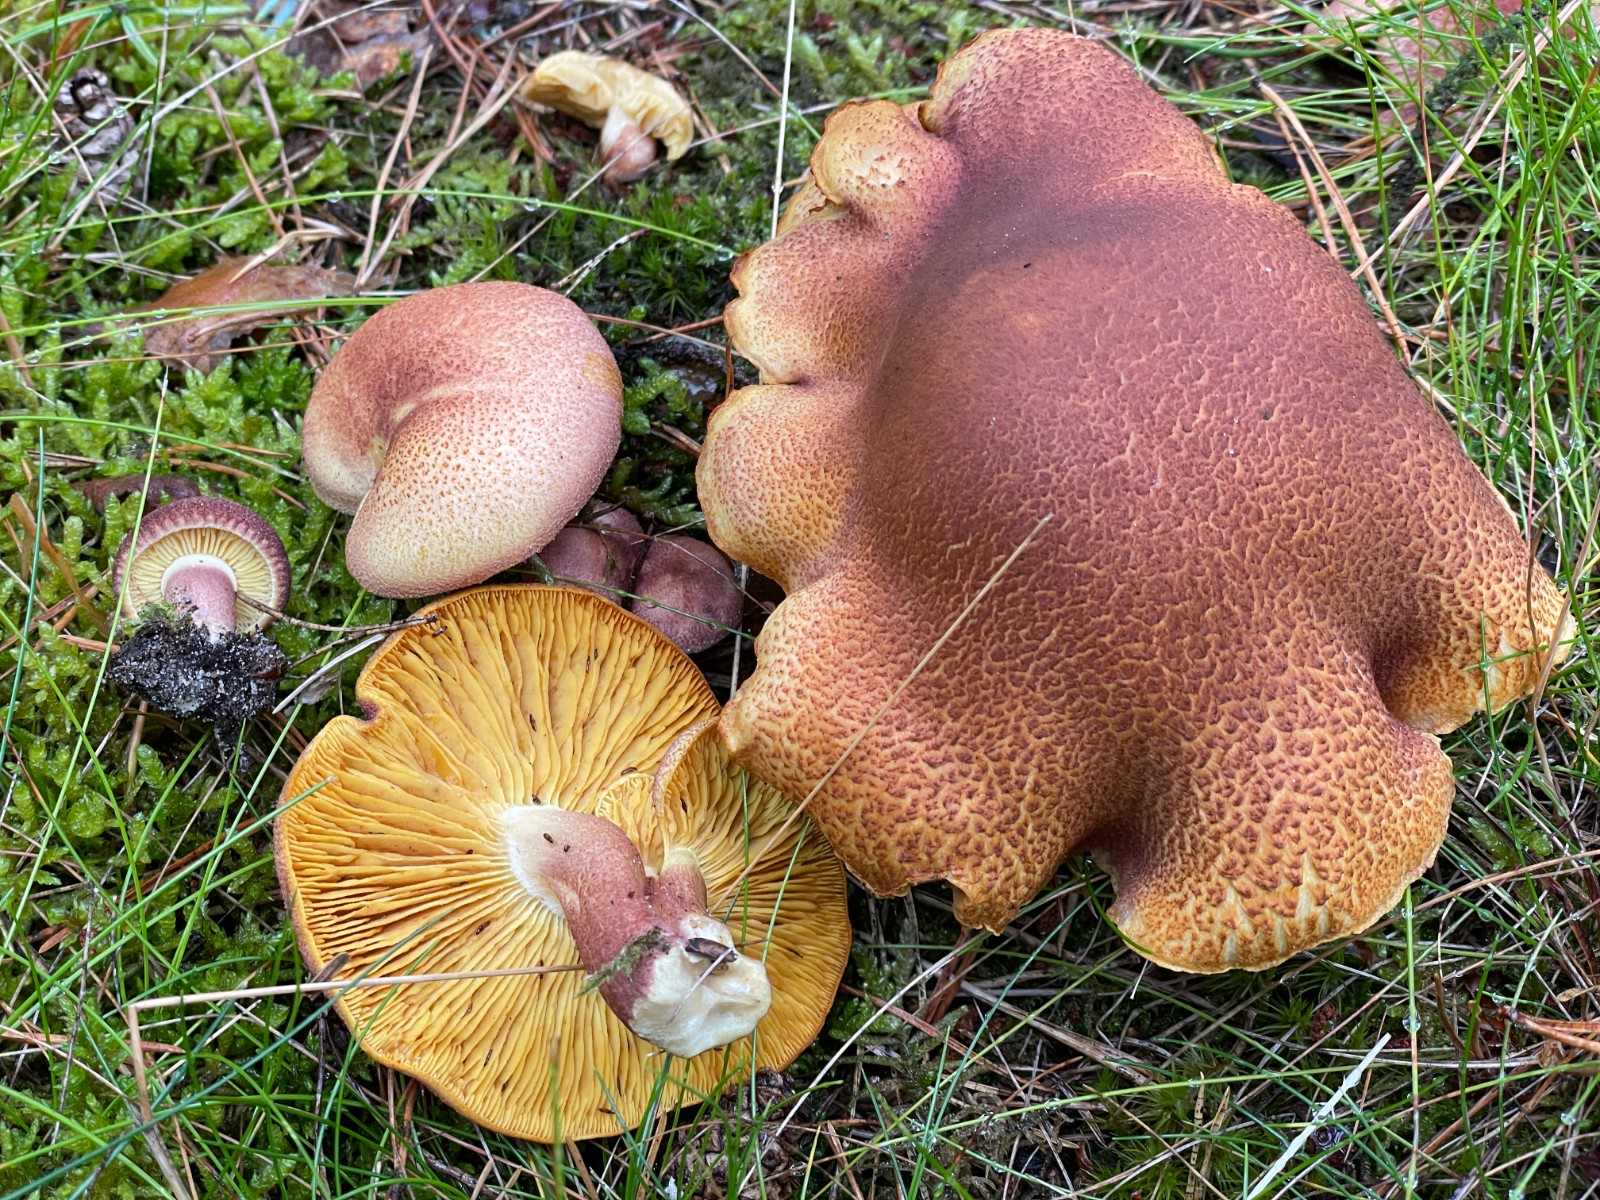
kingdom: Fungi
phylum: Basidiomycota
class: Agaricomycetes
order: Agaricales
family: Tricholomataceae
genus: Tricholomopsis
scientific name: Tricholomopsis rutilans
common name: purpur-væbnerhat
